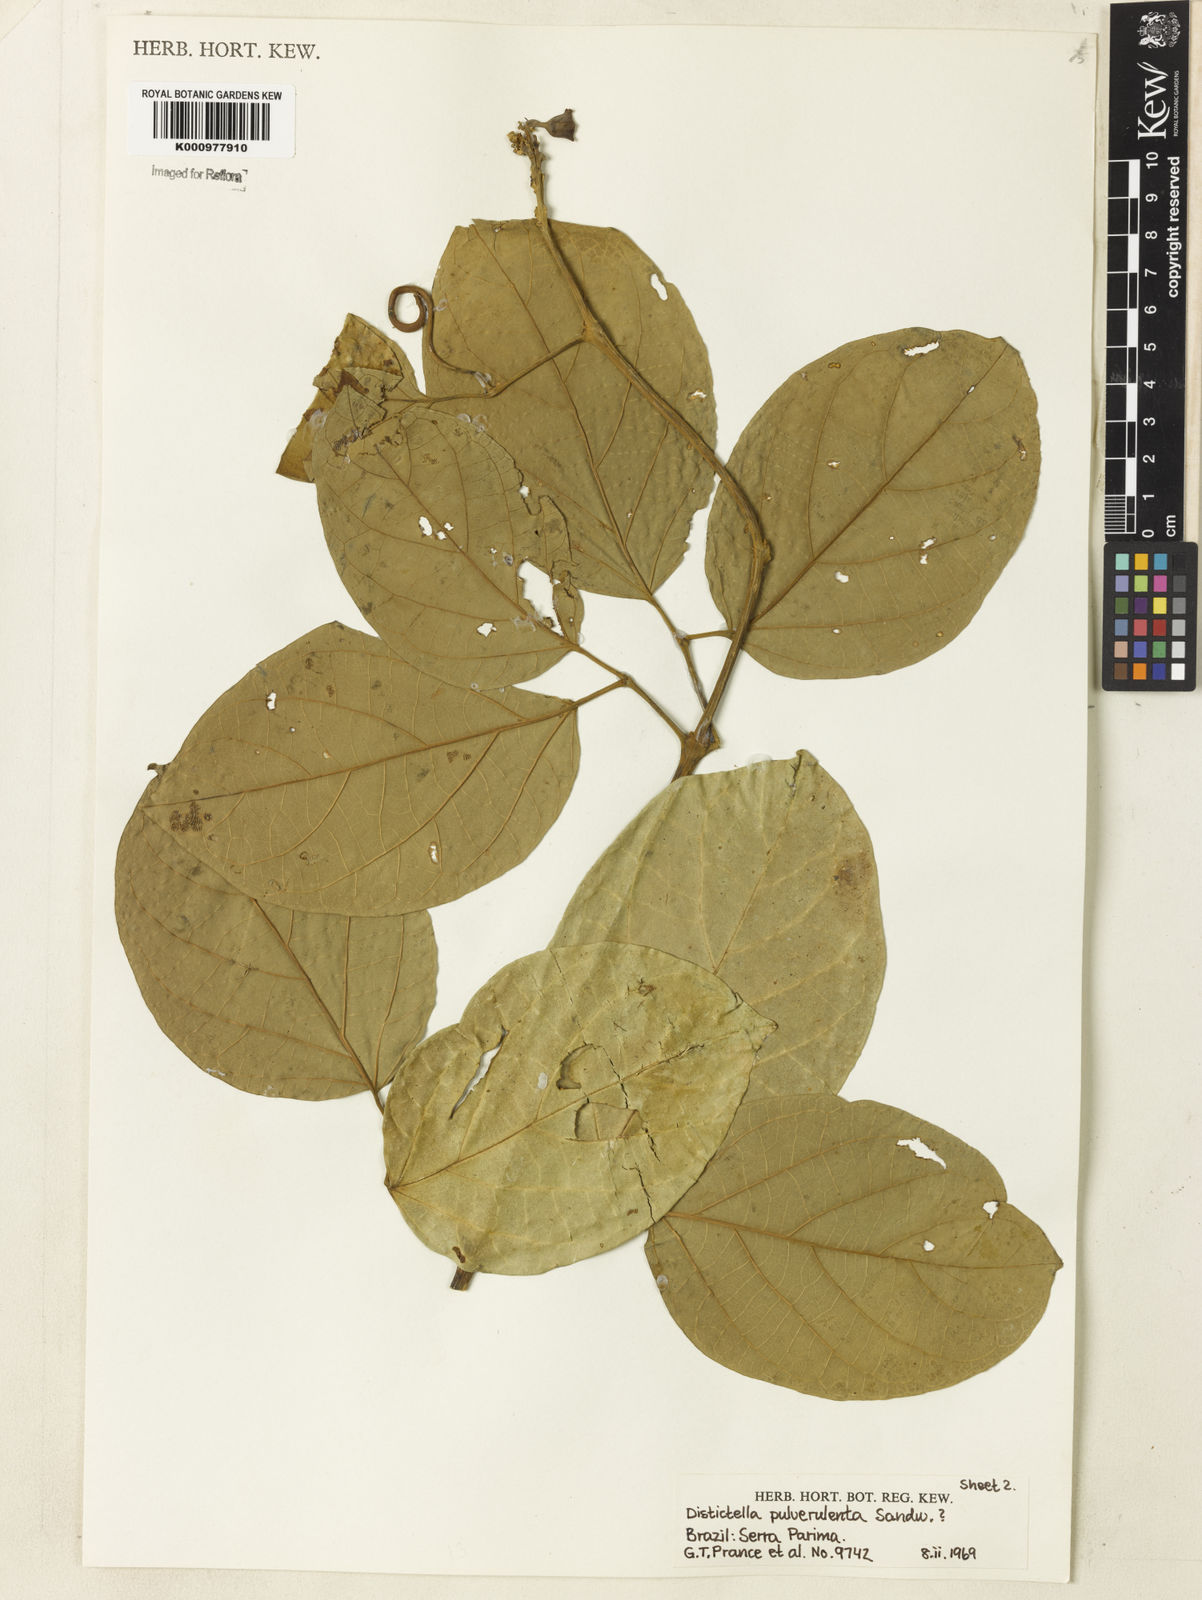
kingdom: Plantae
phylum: Tracheophyta
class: Magnoliopsida
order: Lamiales
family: Bignoniaceae
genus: Amphilophium
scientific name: Amphilophium pulverulentum
